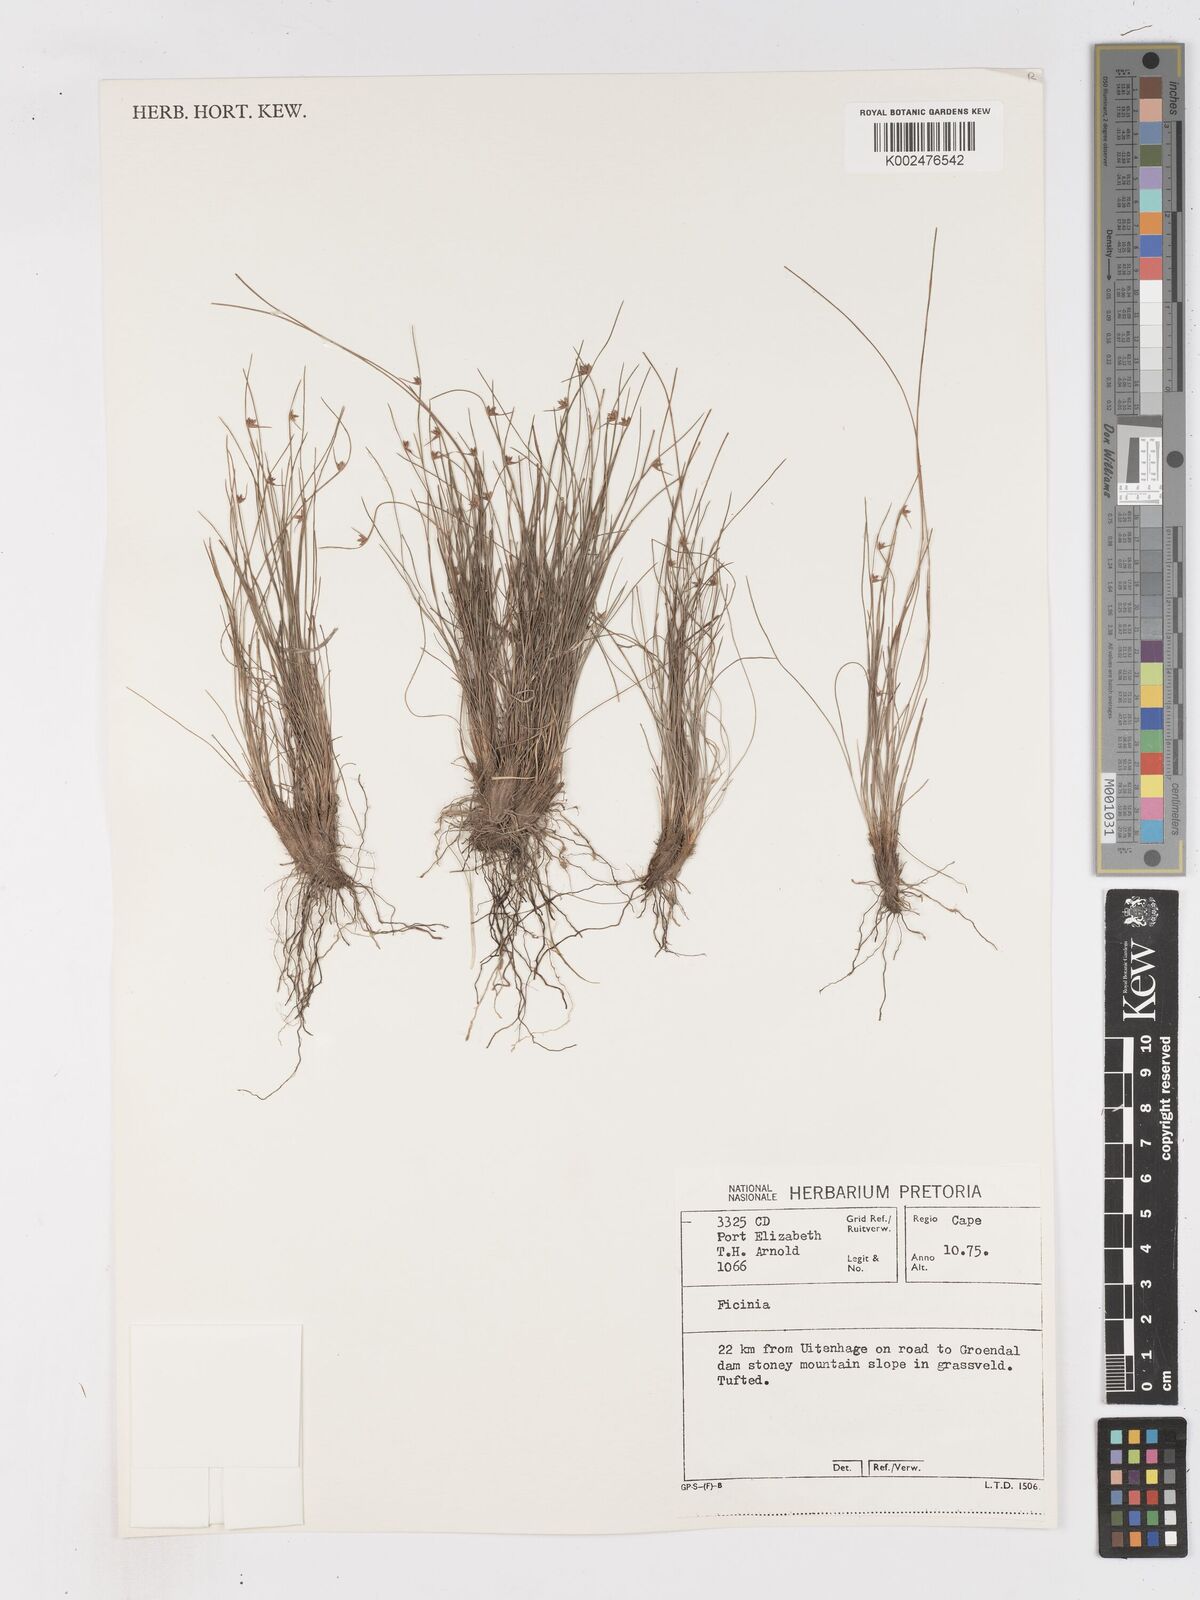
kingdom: Plantae
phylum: Tracheophyta
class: Liliopsida
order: Poales
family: Cyperaceae
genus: Ficinia
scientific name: Ficinia
